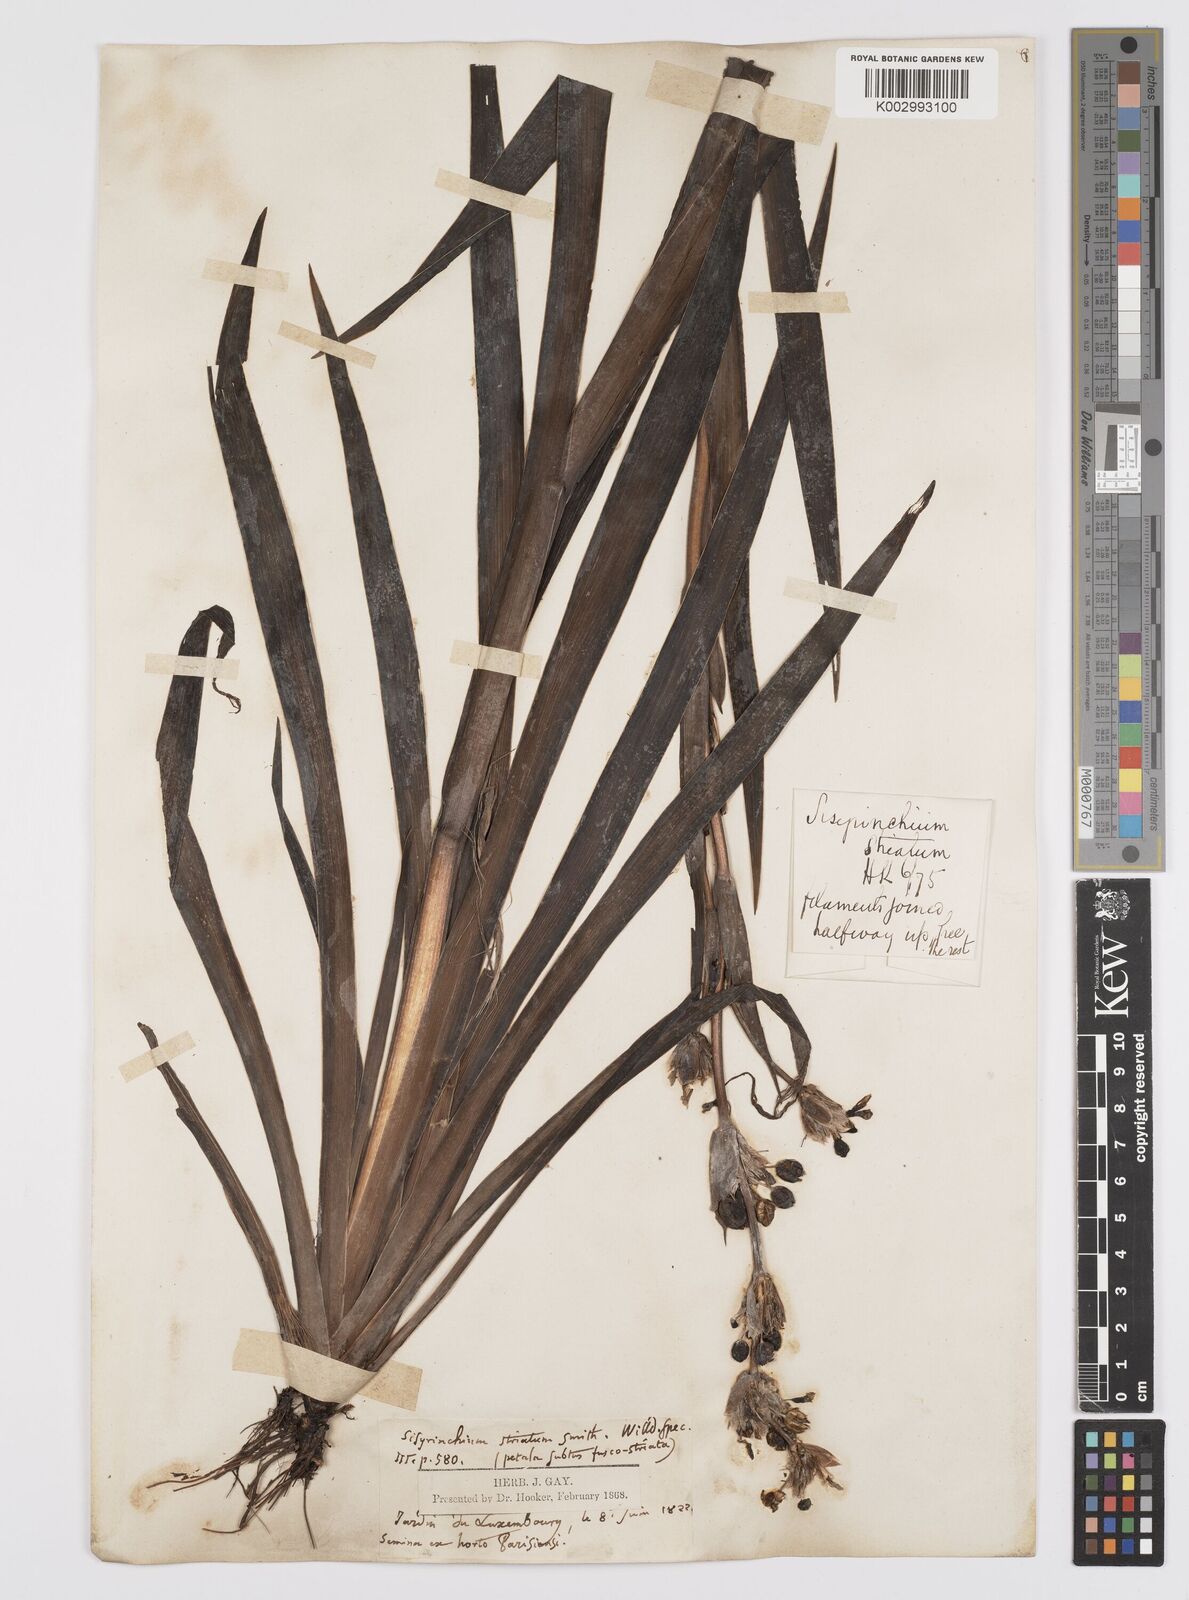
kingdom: Plantae
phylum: Tracheophyta
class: Liliopsida
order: Asparagales
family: Iridaceae
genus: Sisyrinchium
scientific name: Sisyrinchium striatum
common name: Pale yellow-eyed-grass
